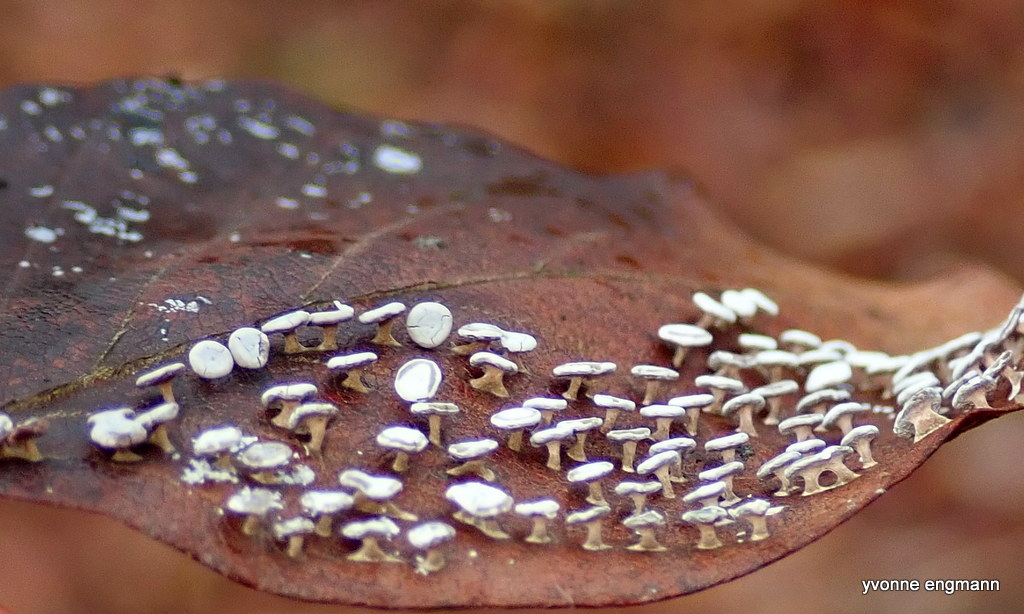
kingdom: Protozoa
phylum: Mycetozoa
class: Myxomycetes
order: Physarales
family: Didymiaceae
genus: Diderma
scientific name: Diderma hemisphaericum
